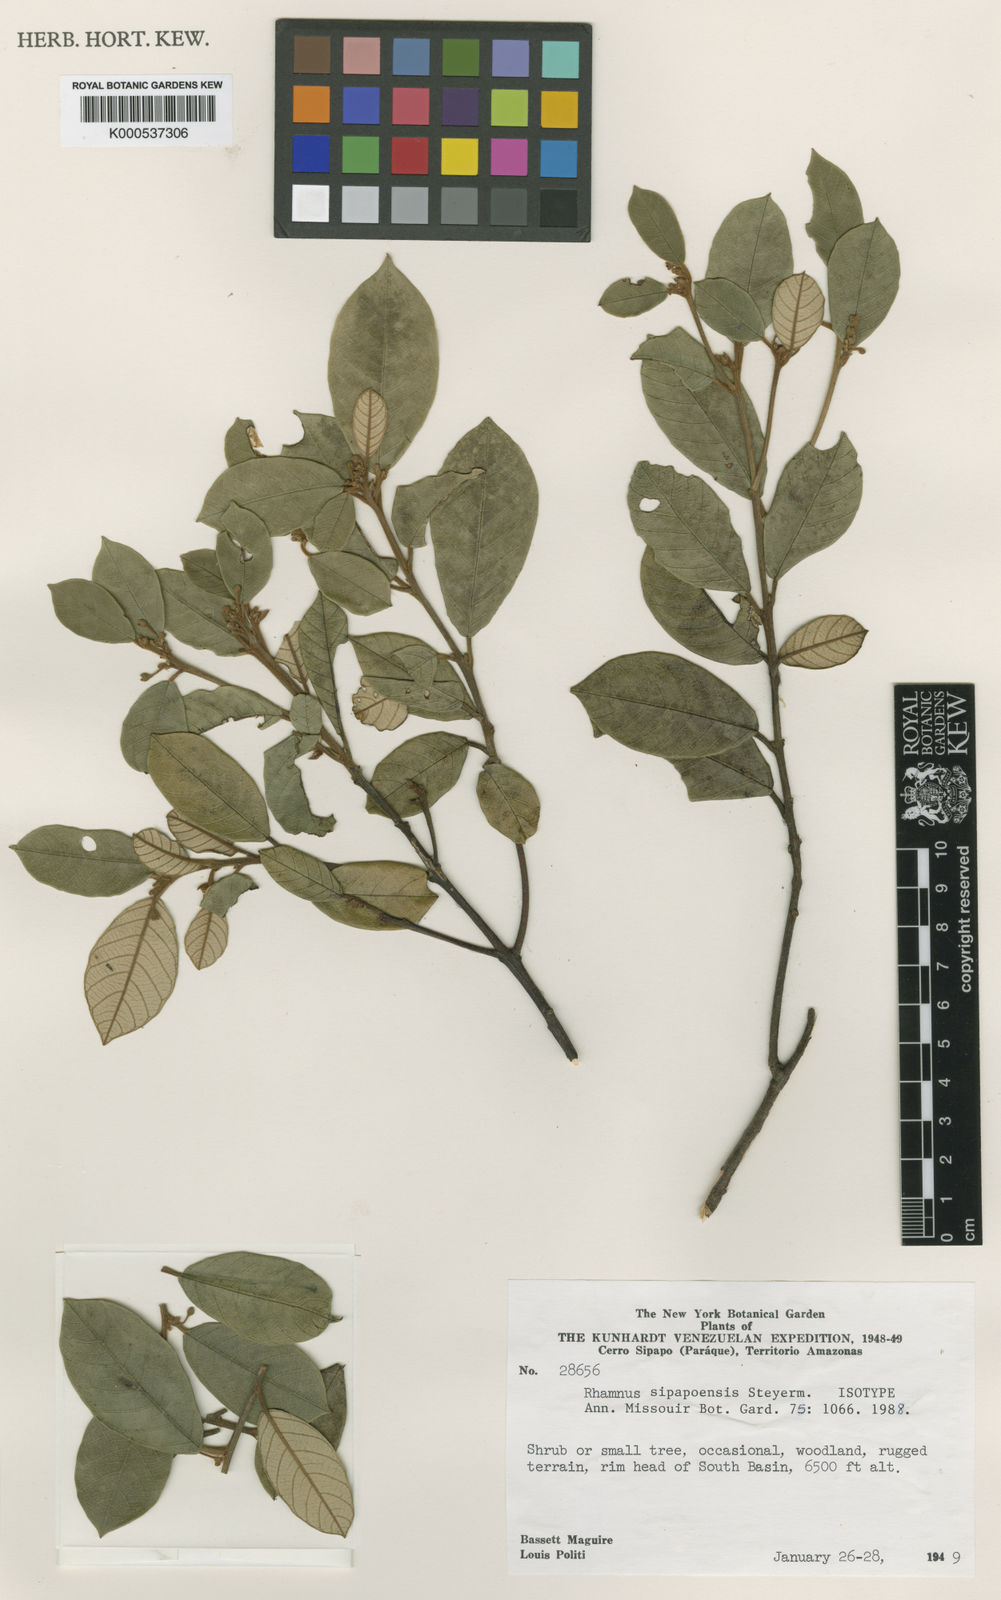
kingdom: Plantae
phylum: Tracheophyta
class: Magnoliopsida
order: Rosales
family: Rhamnaceae
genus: Frangula
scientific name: Frangula marahuacensis
